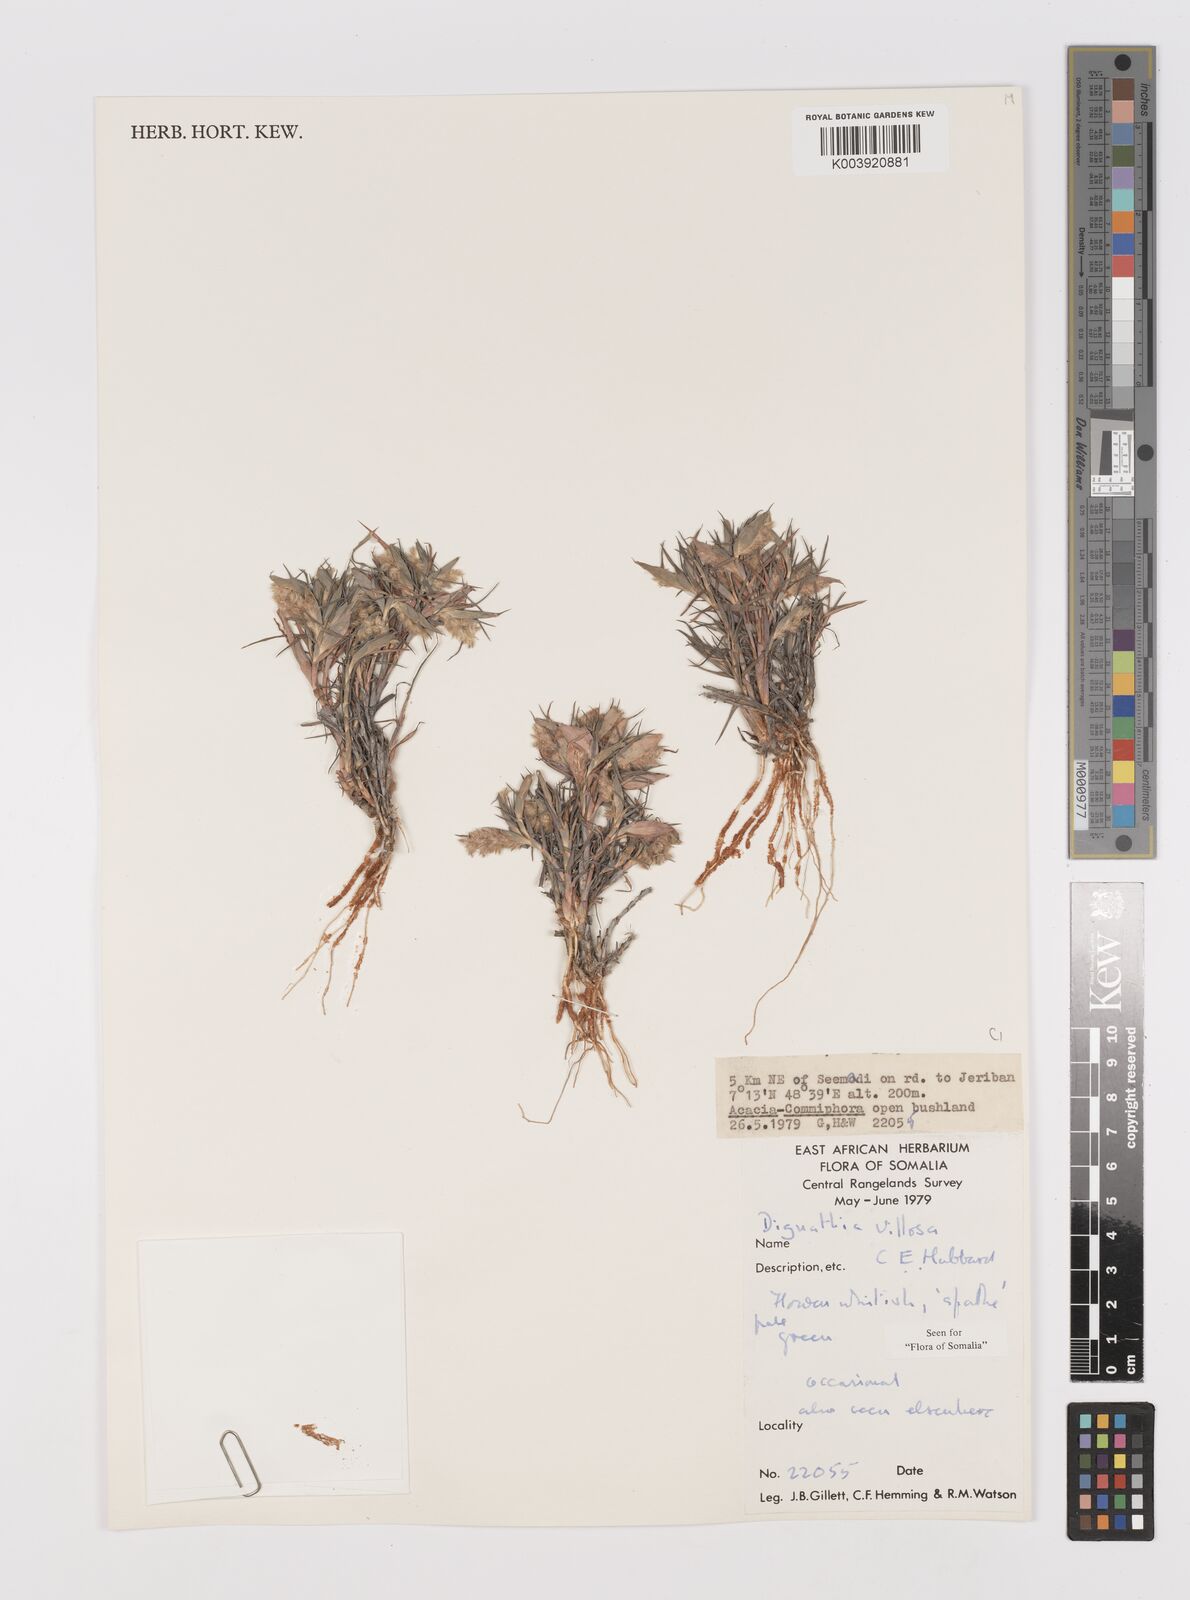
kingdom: Plantae
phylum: Tracheophyta
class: Liliopsida
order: Poales
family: Poaceae
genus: Dignathia
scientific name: Dignathia villosa
